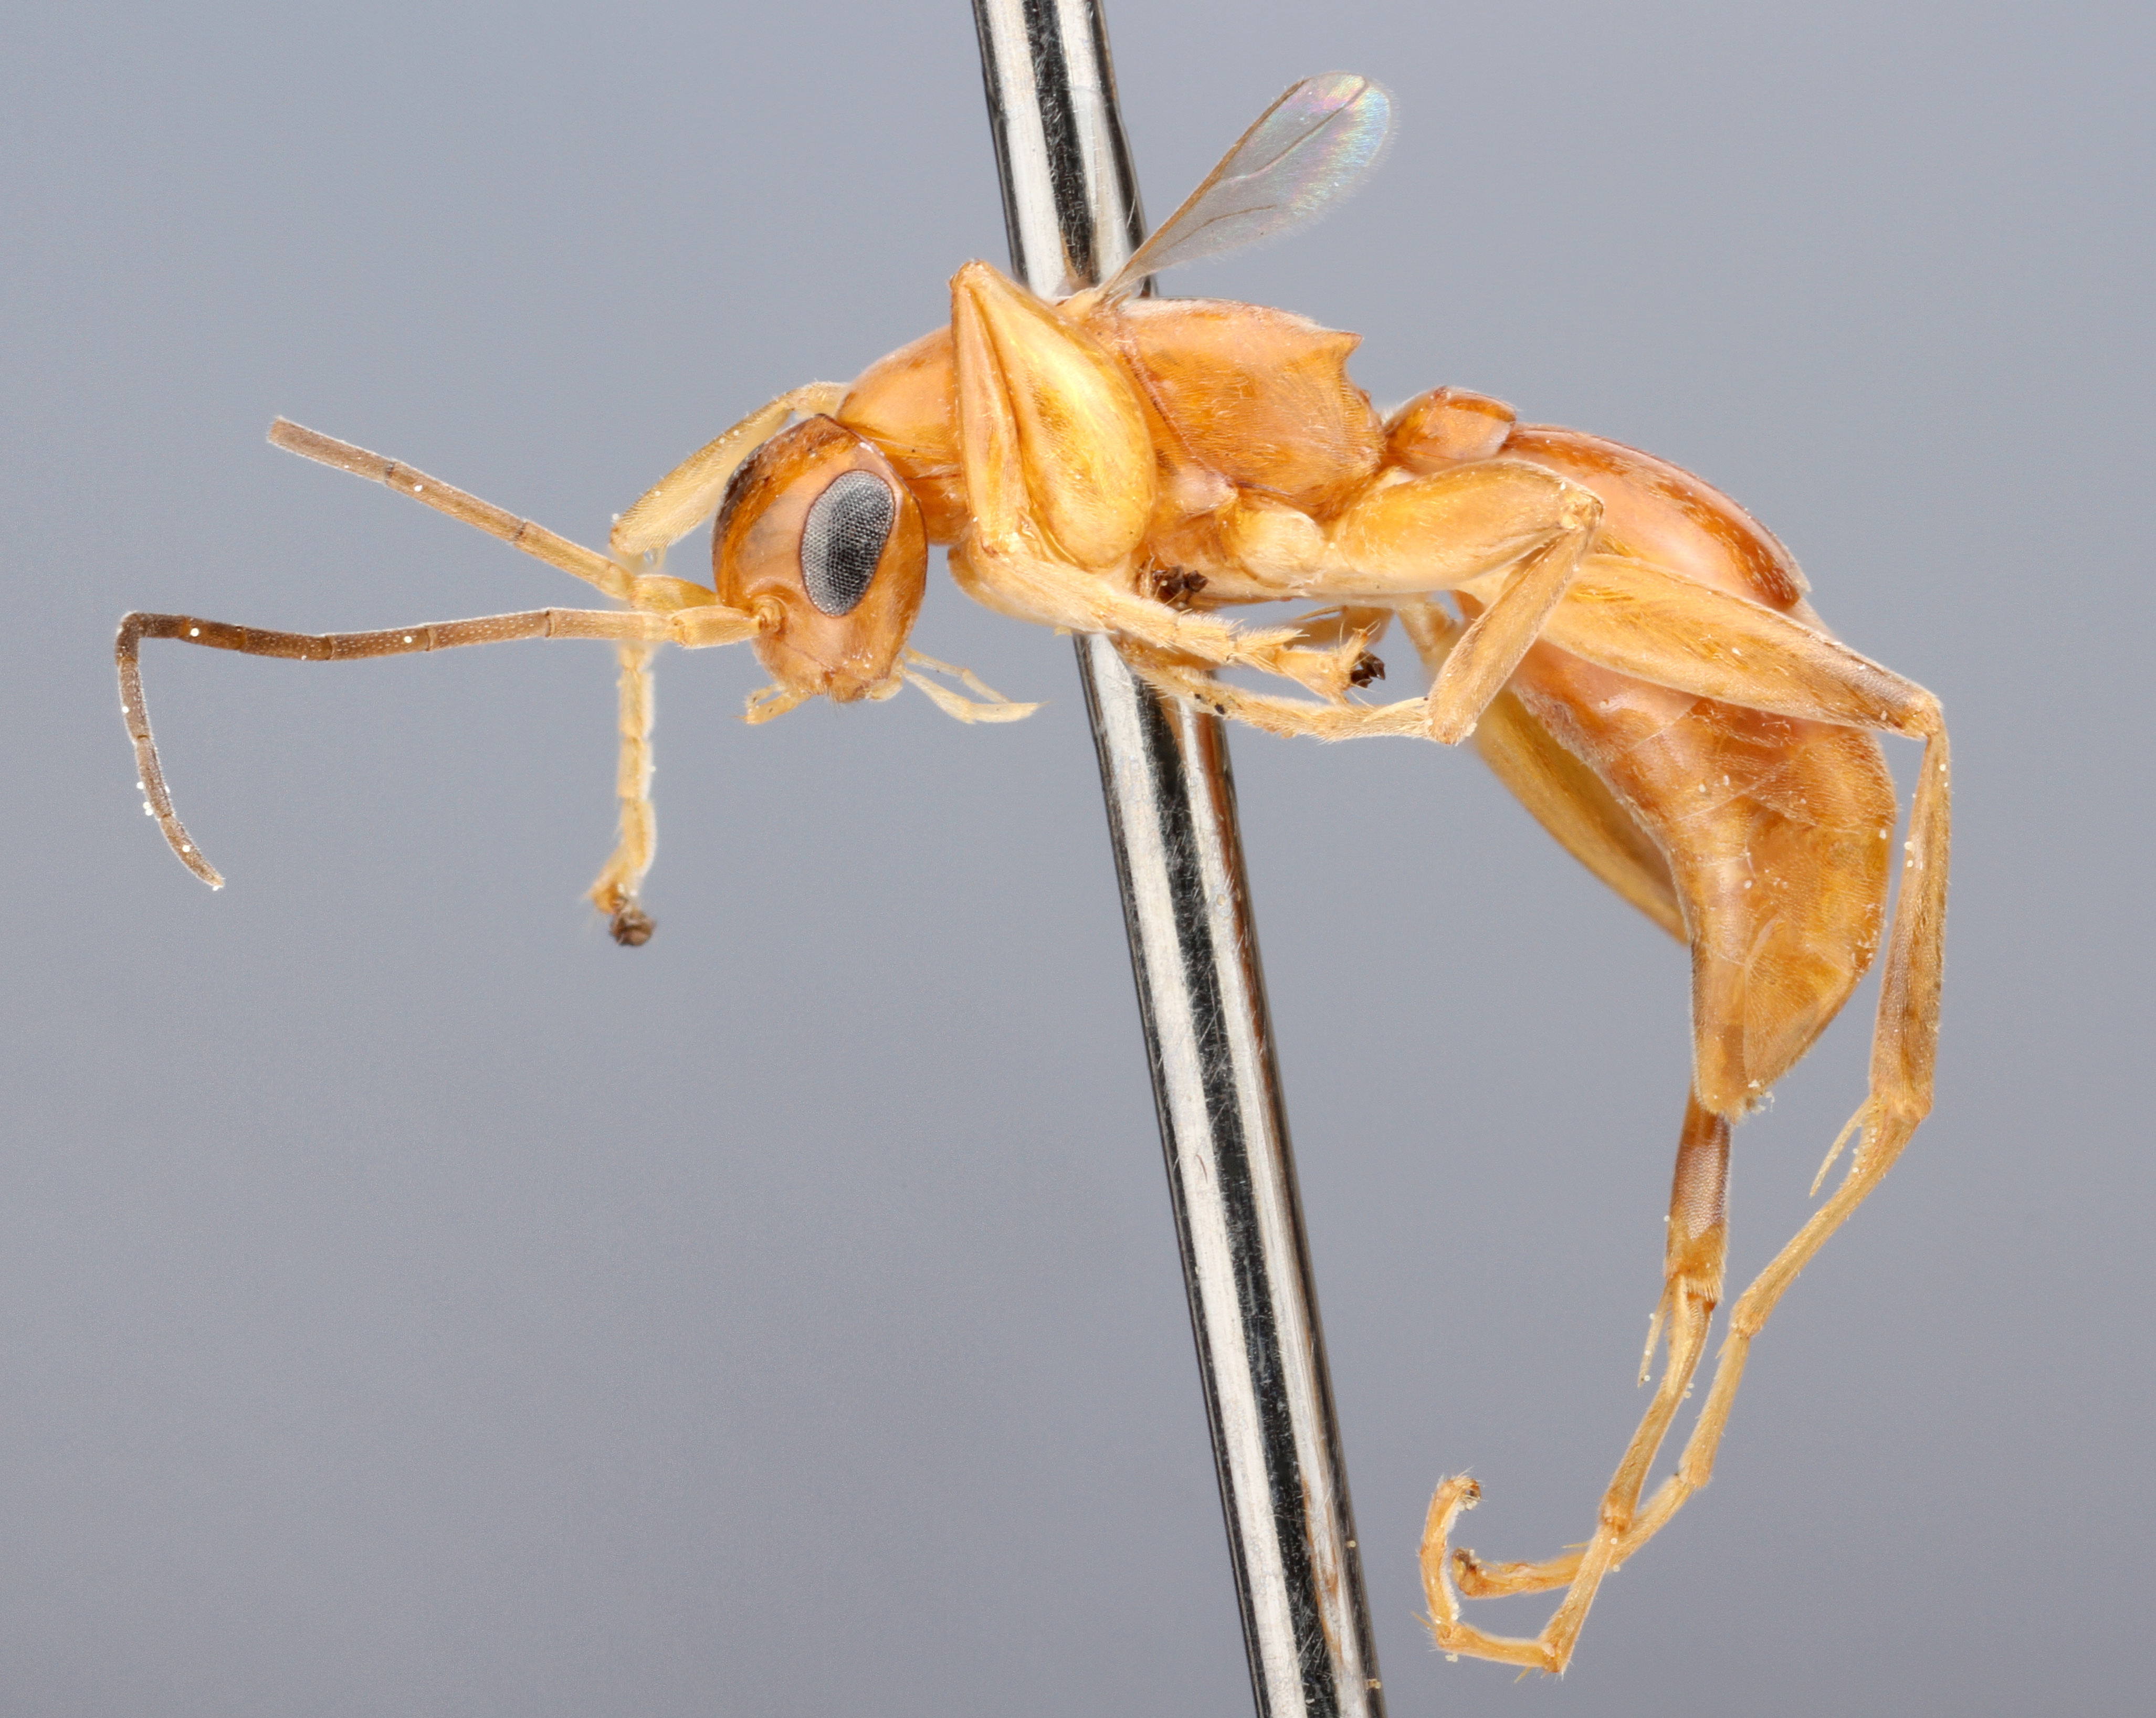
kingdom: Animalia
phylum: Arthropoda
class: Insecta
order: Hymenoptera
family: Rhopalosomatidae
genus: Olixon
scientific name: Olixon banksii
